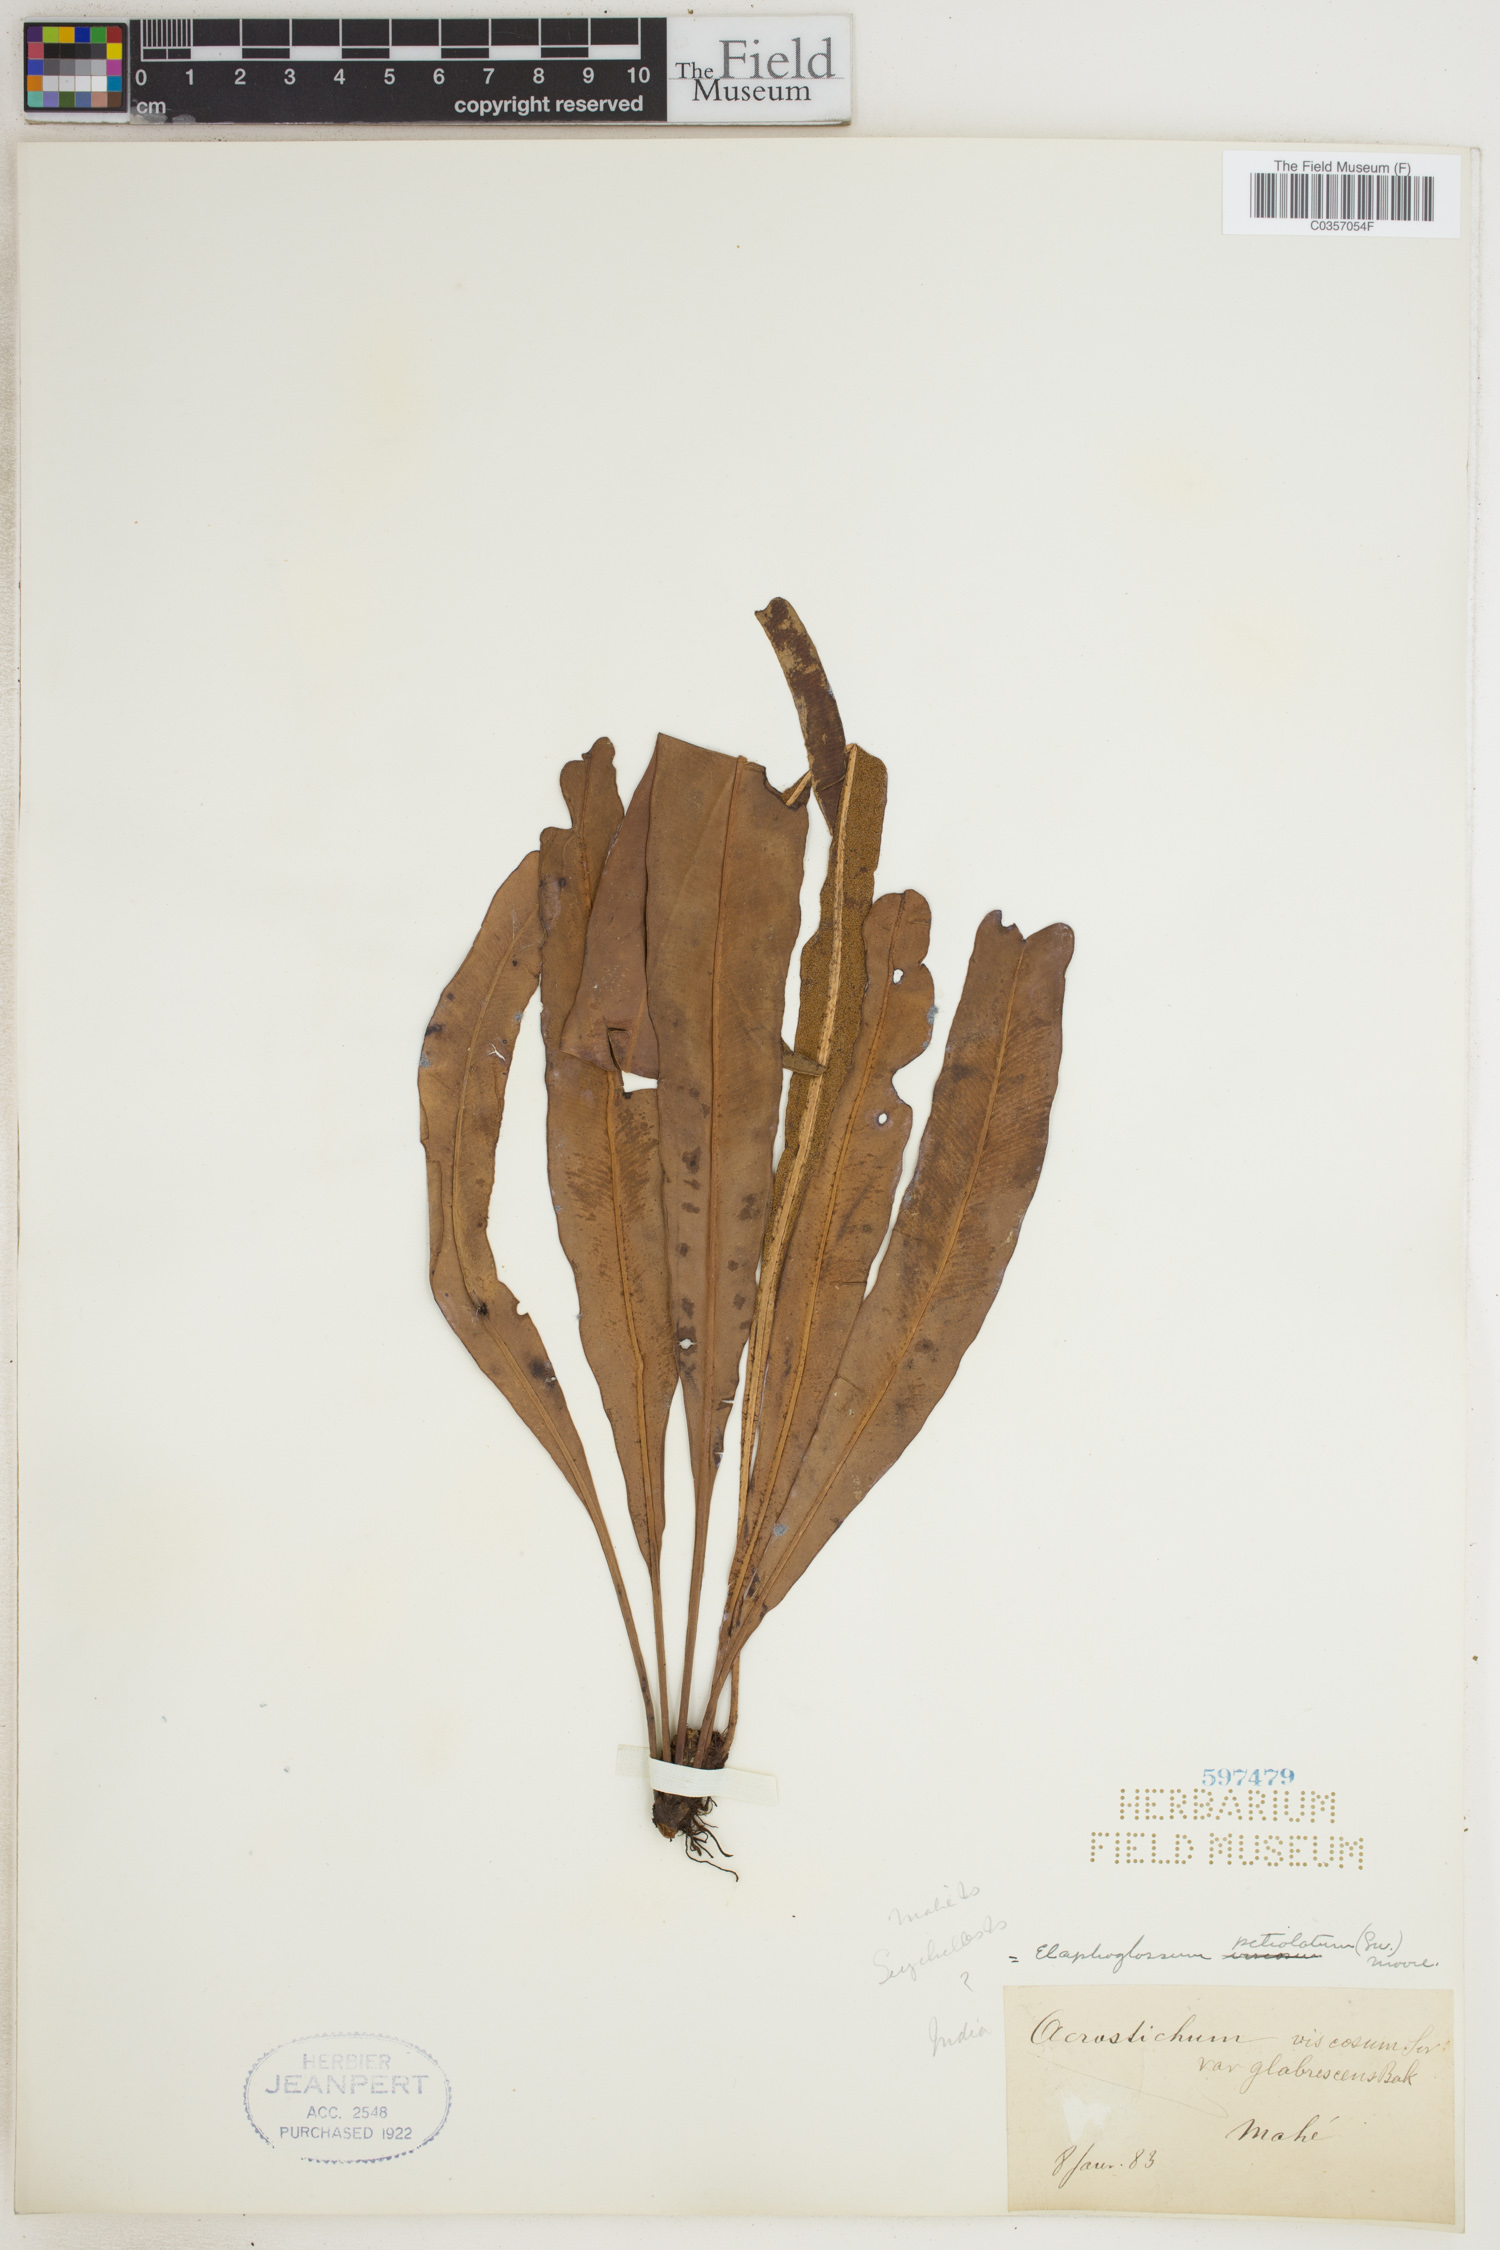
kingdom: Plantae
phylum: Tracheophyta
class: Polypodiopsida
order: Polypodiales
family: Dryopteridaceae
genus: Elaphoglossum
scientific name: Elaphoglossum petiolatum
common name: Graceful tonguefern
